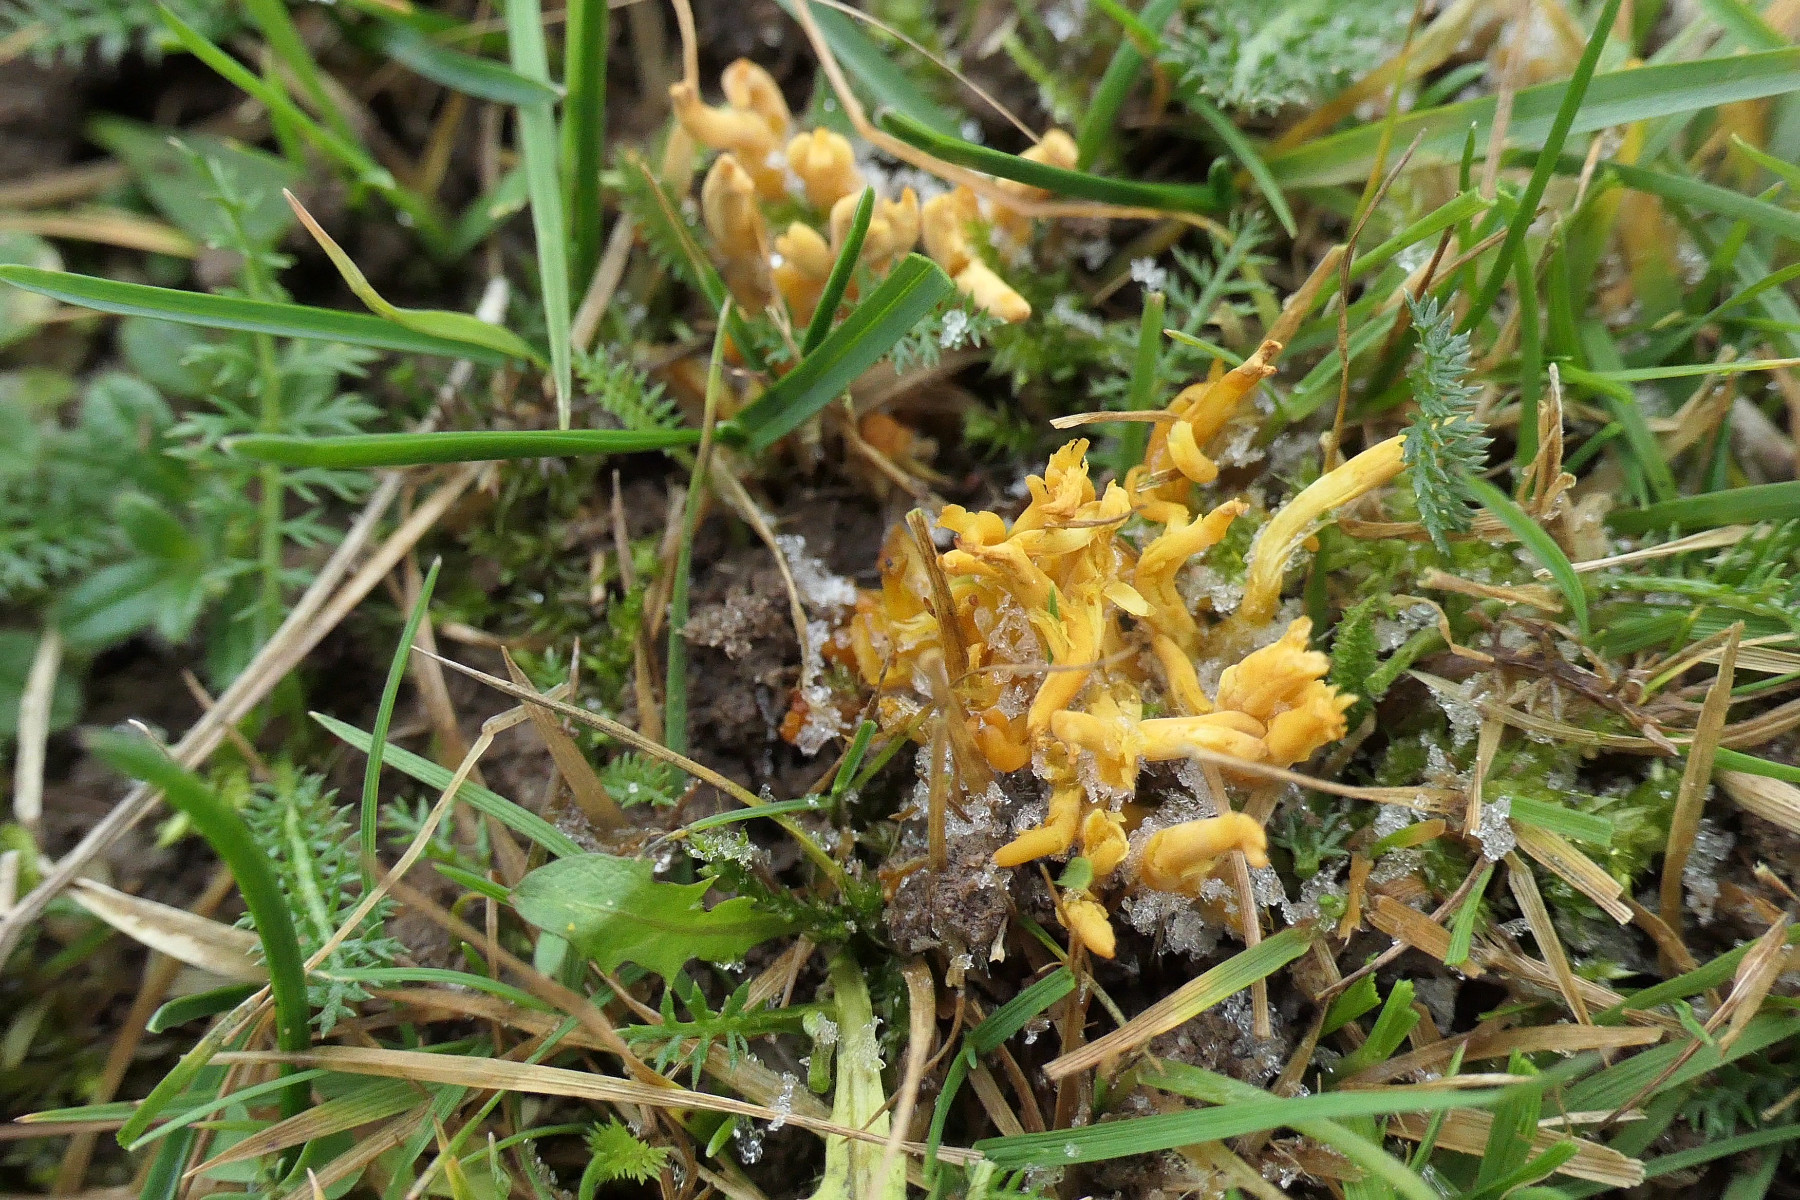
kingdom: Fungi
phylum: Basidiomycota
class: Agaricomycetes
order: Agaricales
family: Clavariaceae
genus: Clavulinopsis
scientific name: Clavulinopsis corniculata
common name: eng-køllesvamp
